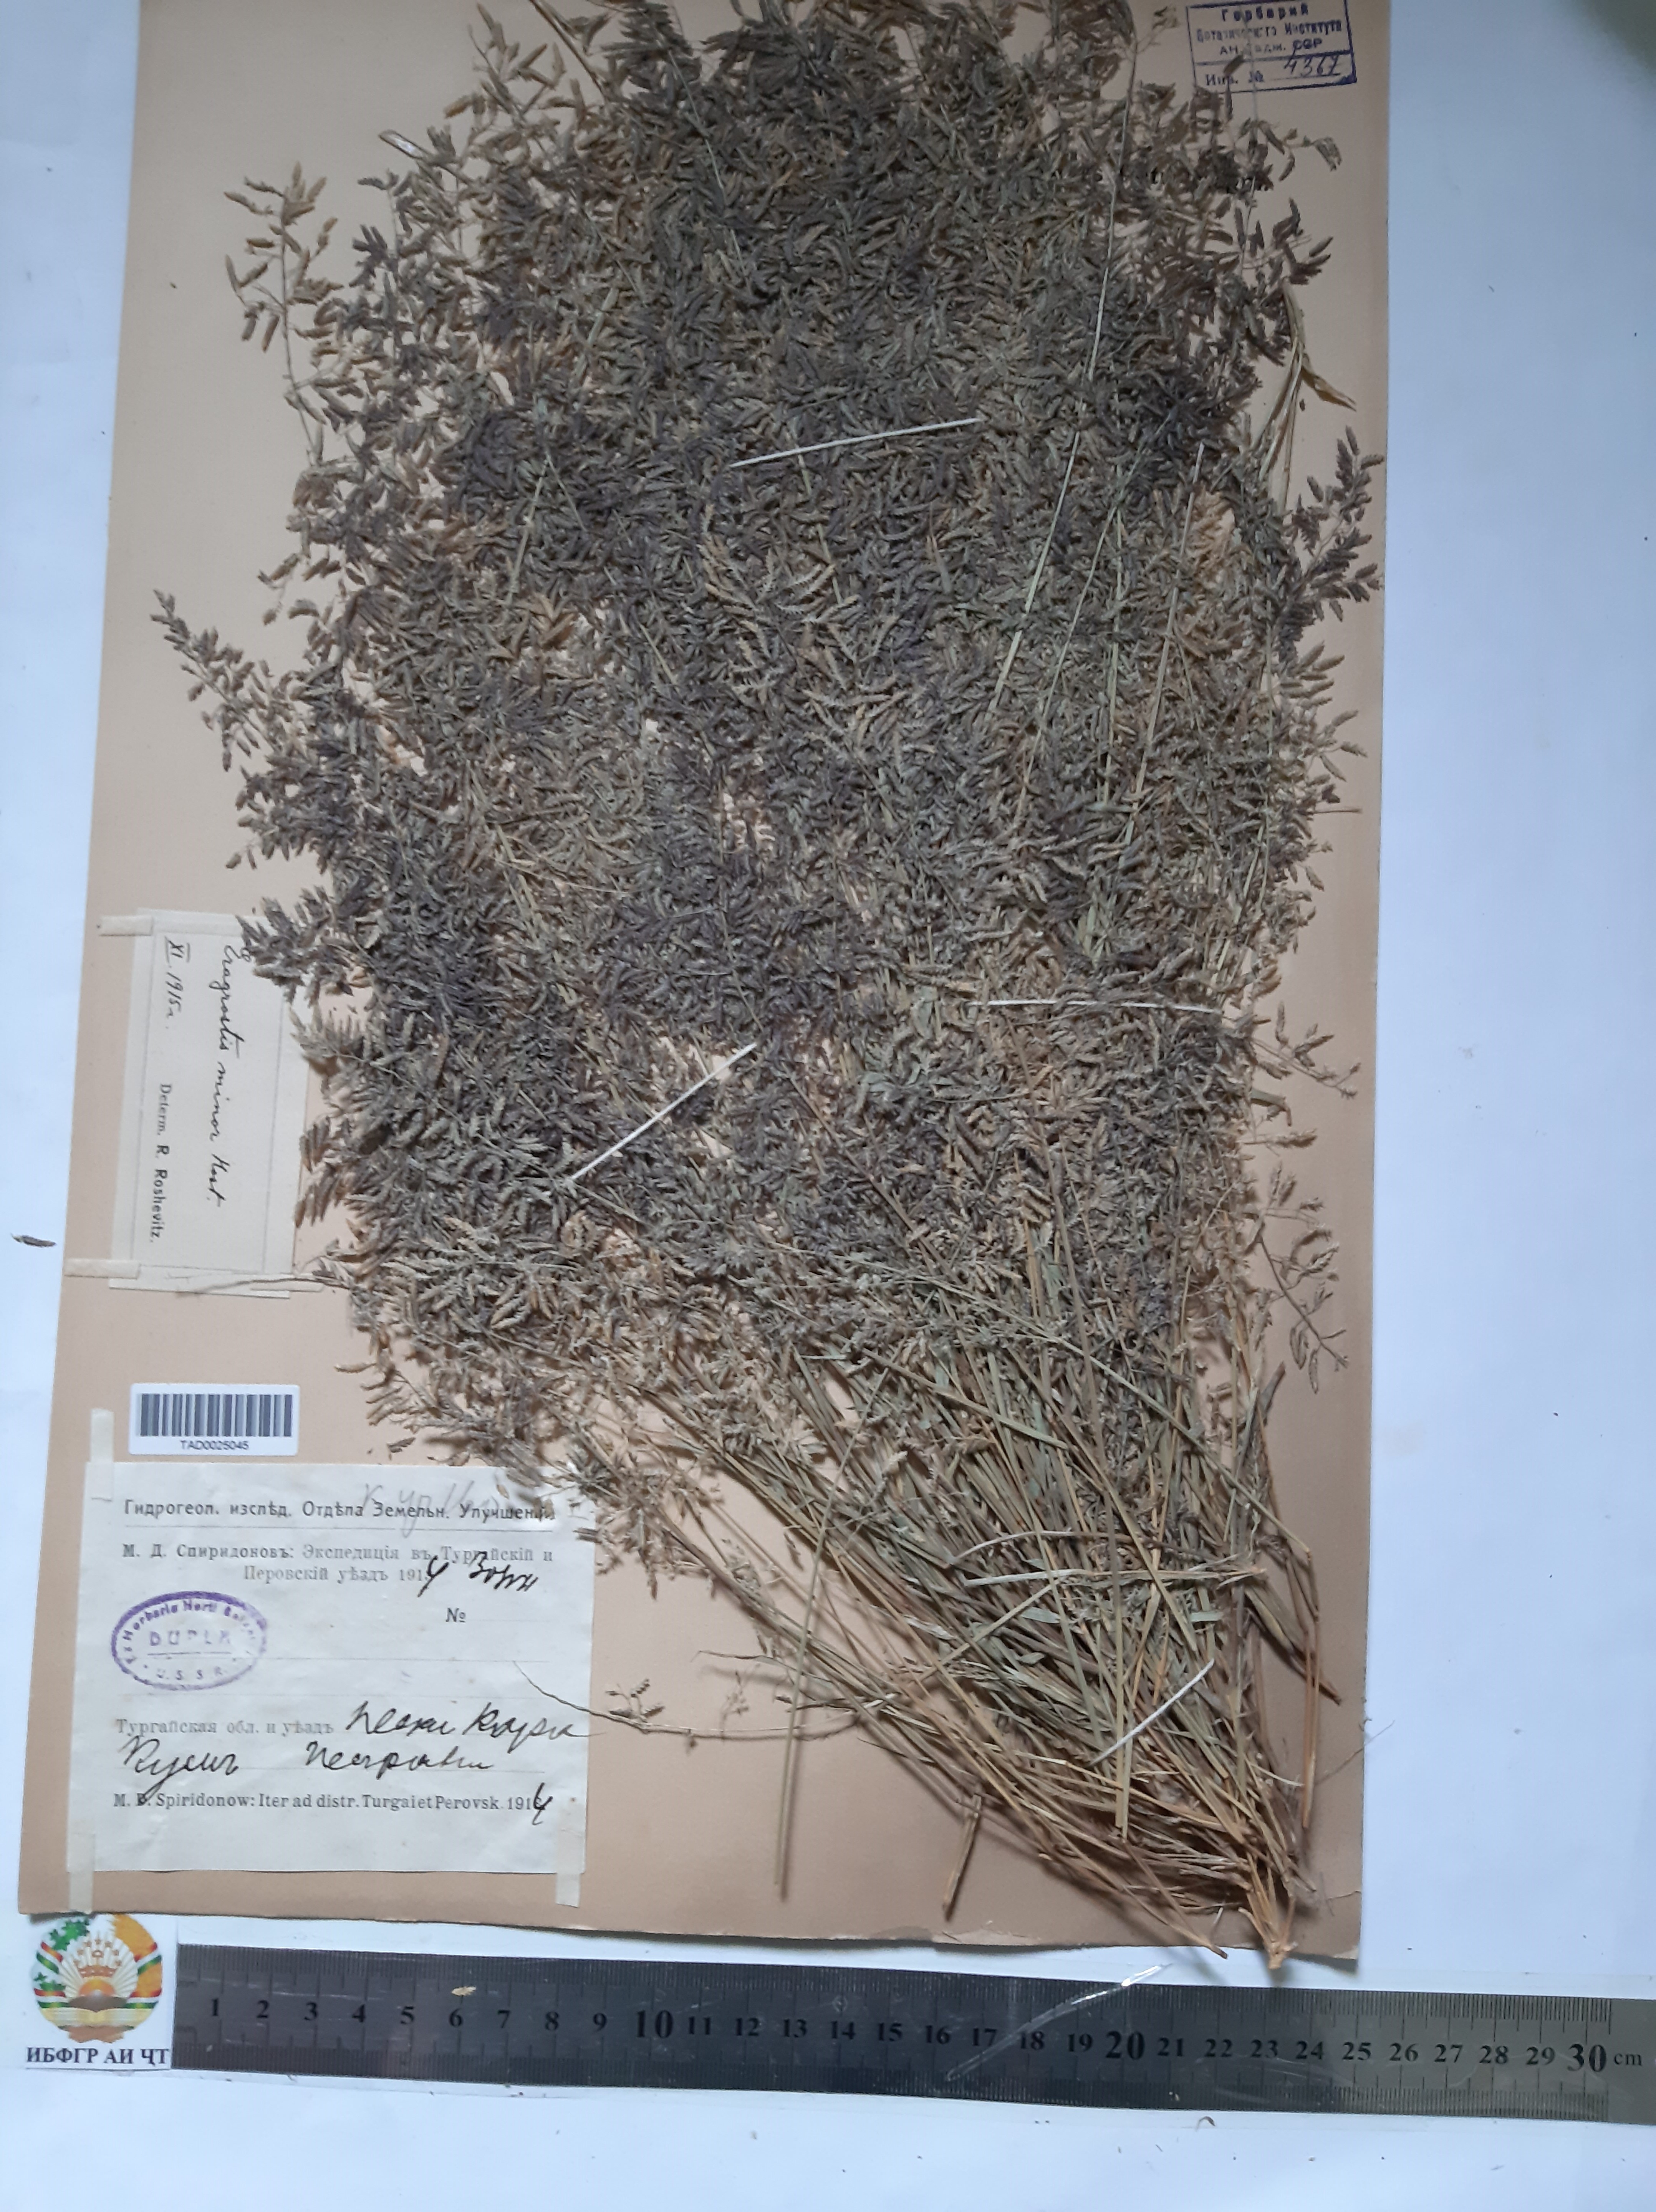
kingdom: Plantae
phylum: Tracheophyta
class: Liliopsida
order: Poales
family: Poaceae
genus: Eragrostis
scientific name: Eragrostis minor
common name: Small love-grass
